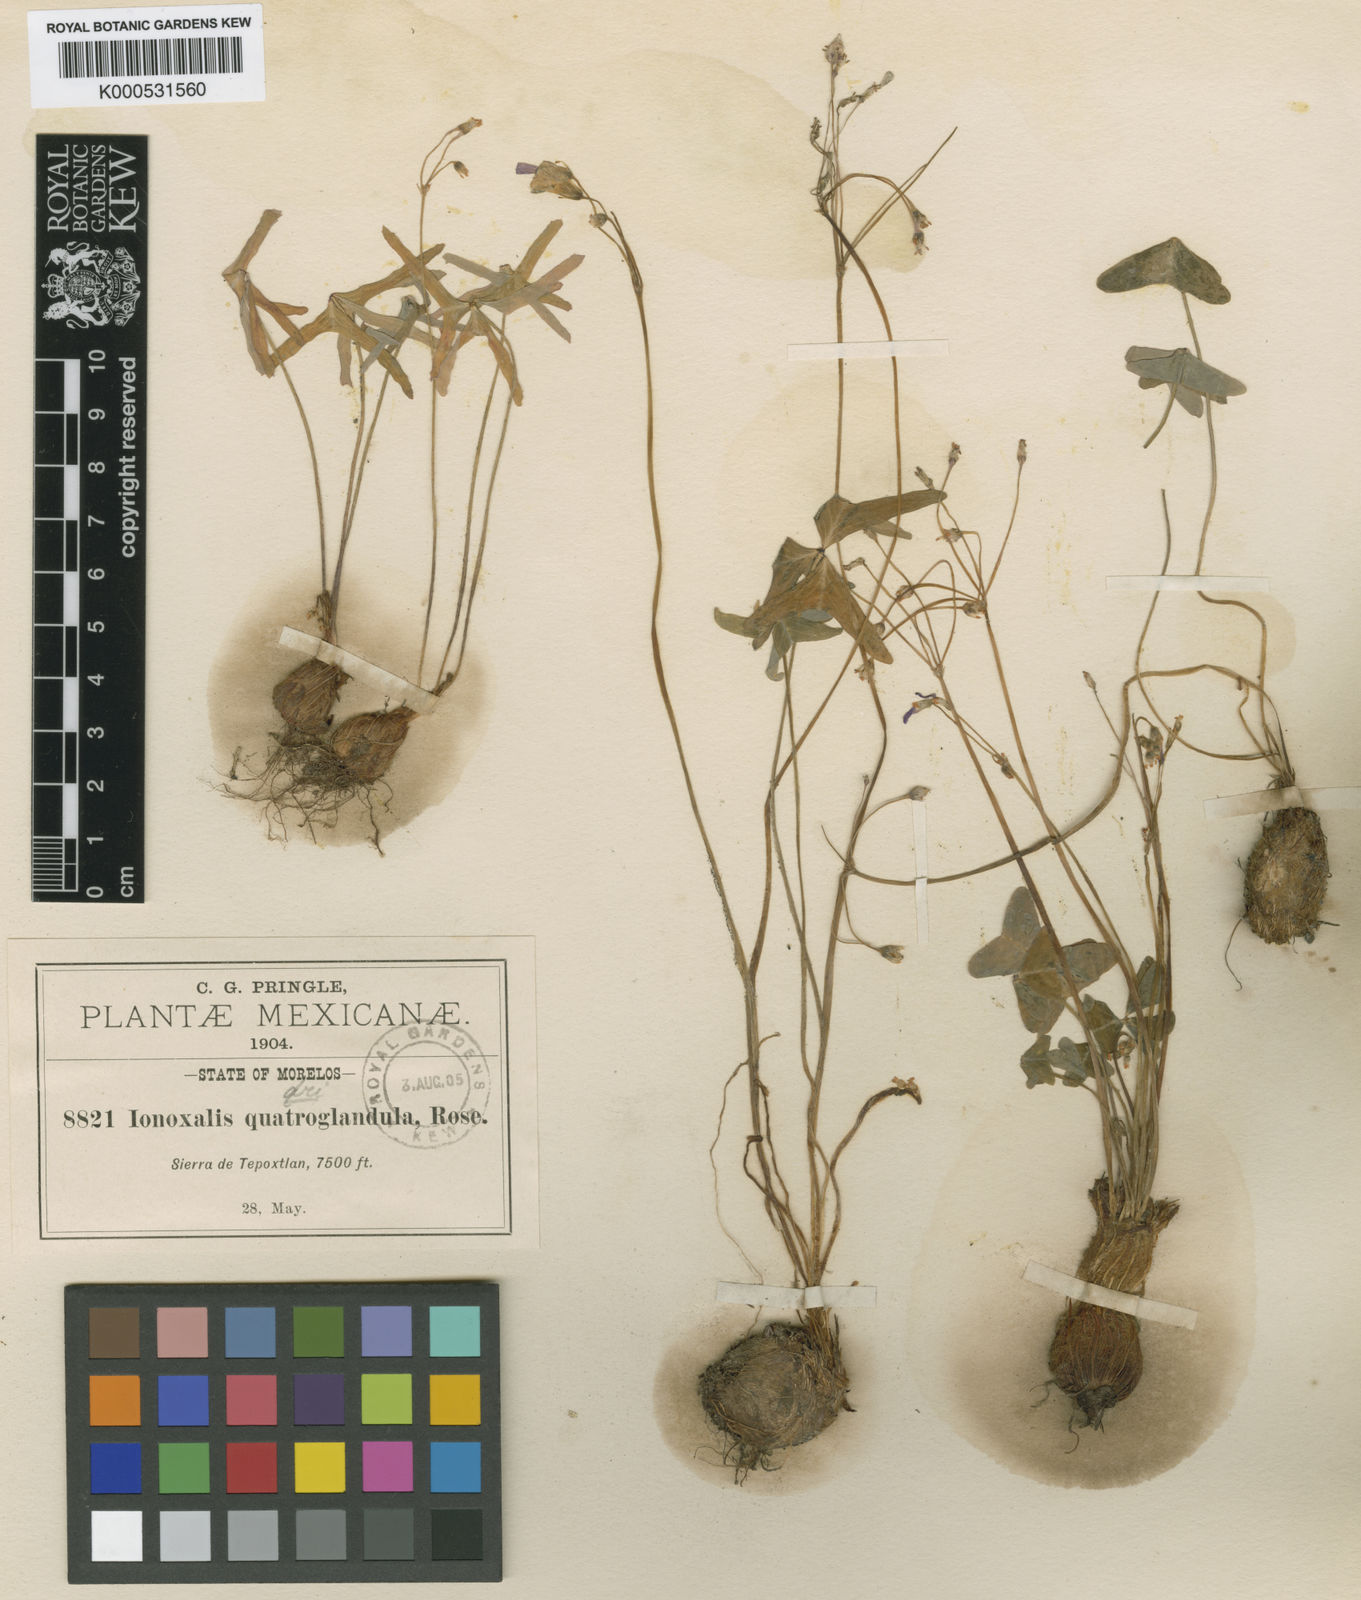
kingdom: Plantae
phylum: Tracheophyta
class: Magnoliopsida
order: Oxalidales
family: Oxalidaceae
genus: Oxalis
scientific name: Oxalis jacquiniana
